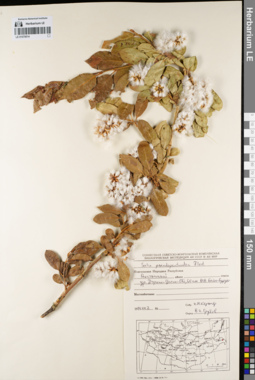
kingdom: Plantae
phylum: Tracheophyta
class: Magnoliopsida
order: Malpighiales
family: Salicaceae
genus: Salix
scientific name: Salix pseudopentandra
